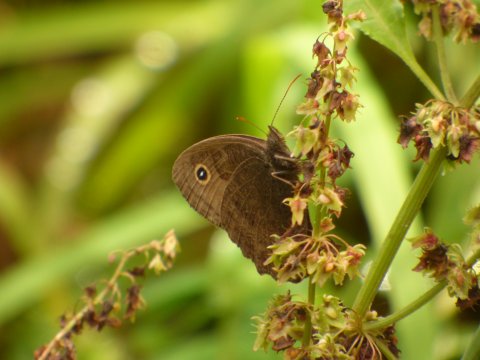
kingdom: Animalia
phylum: Arthropoda
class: Insecta
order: Lepidoptera
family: Nymphalidae
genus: Cercyonis
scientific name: Cercyonis pegala
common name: Common Wood-Nymph
